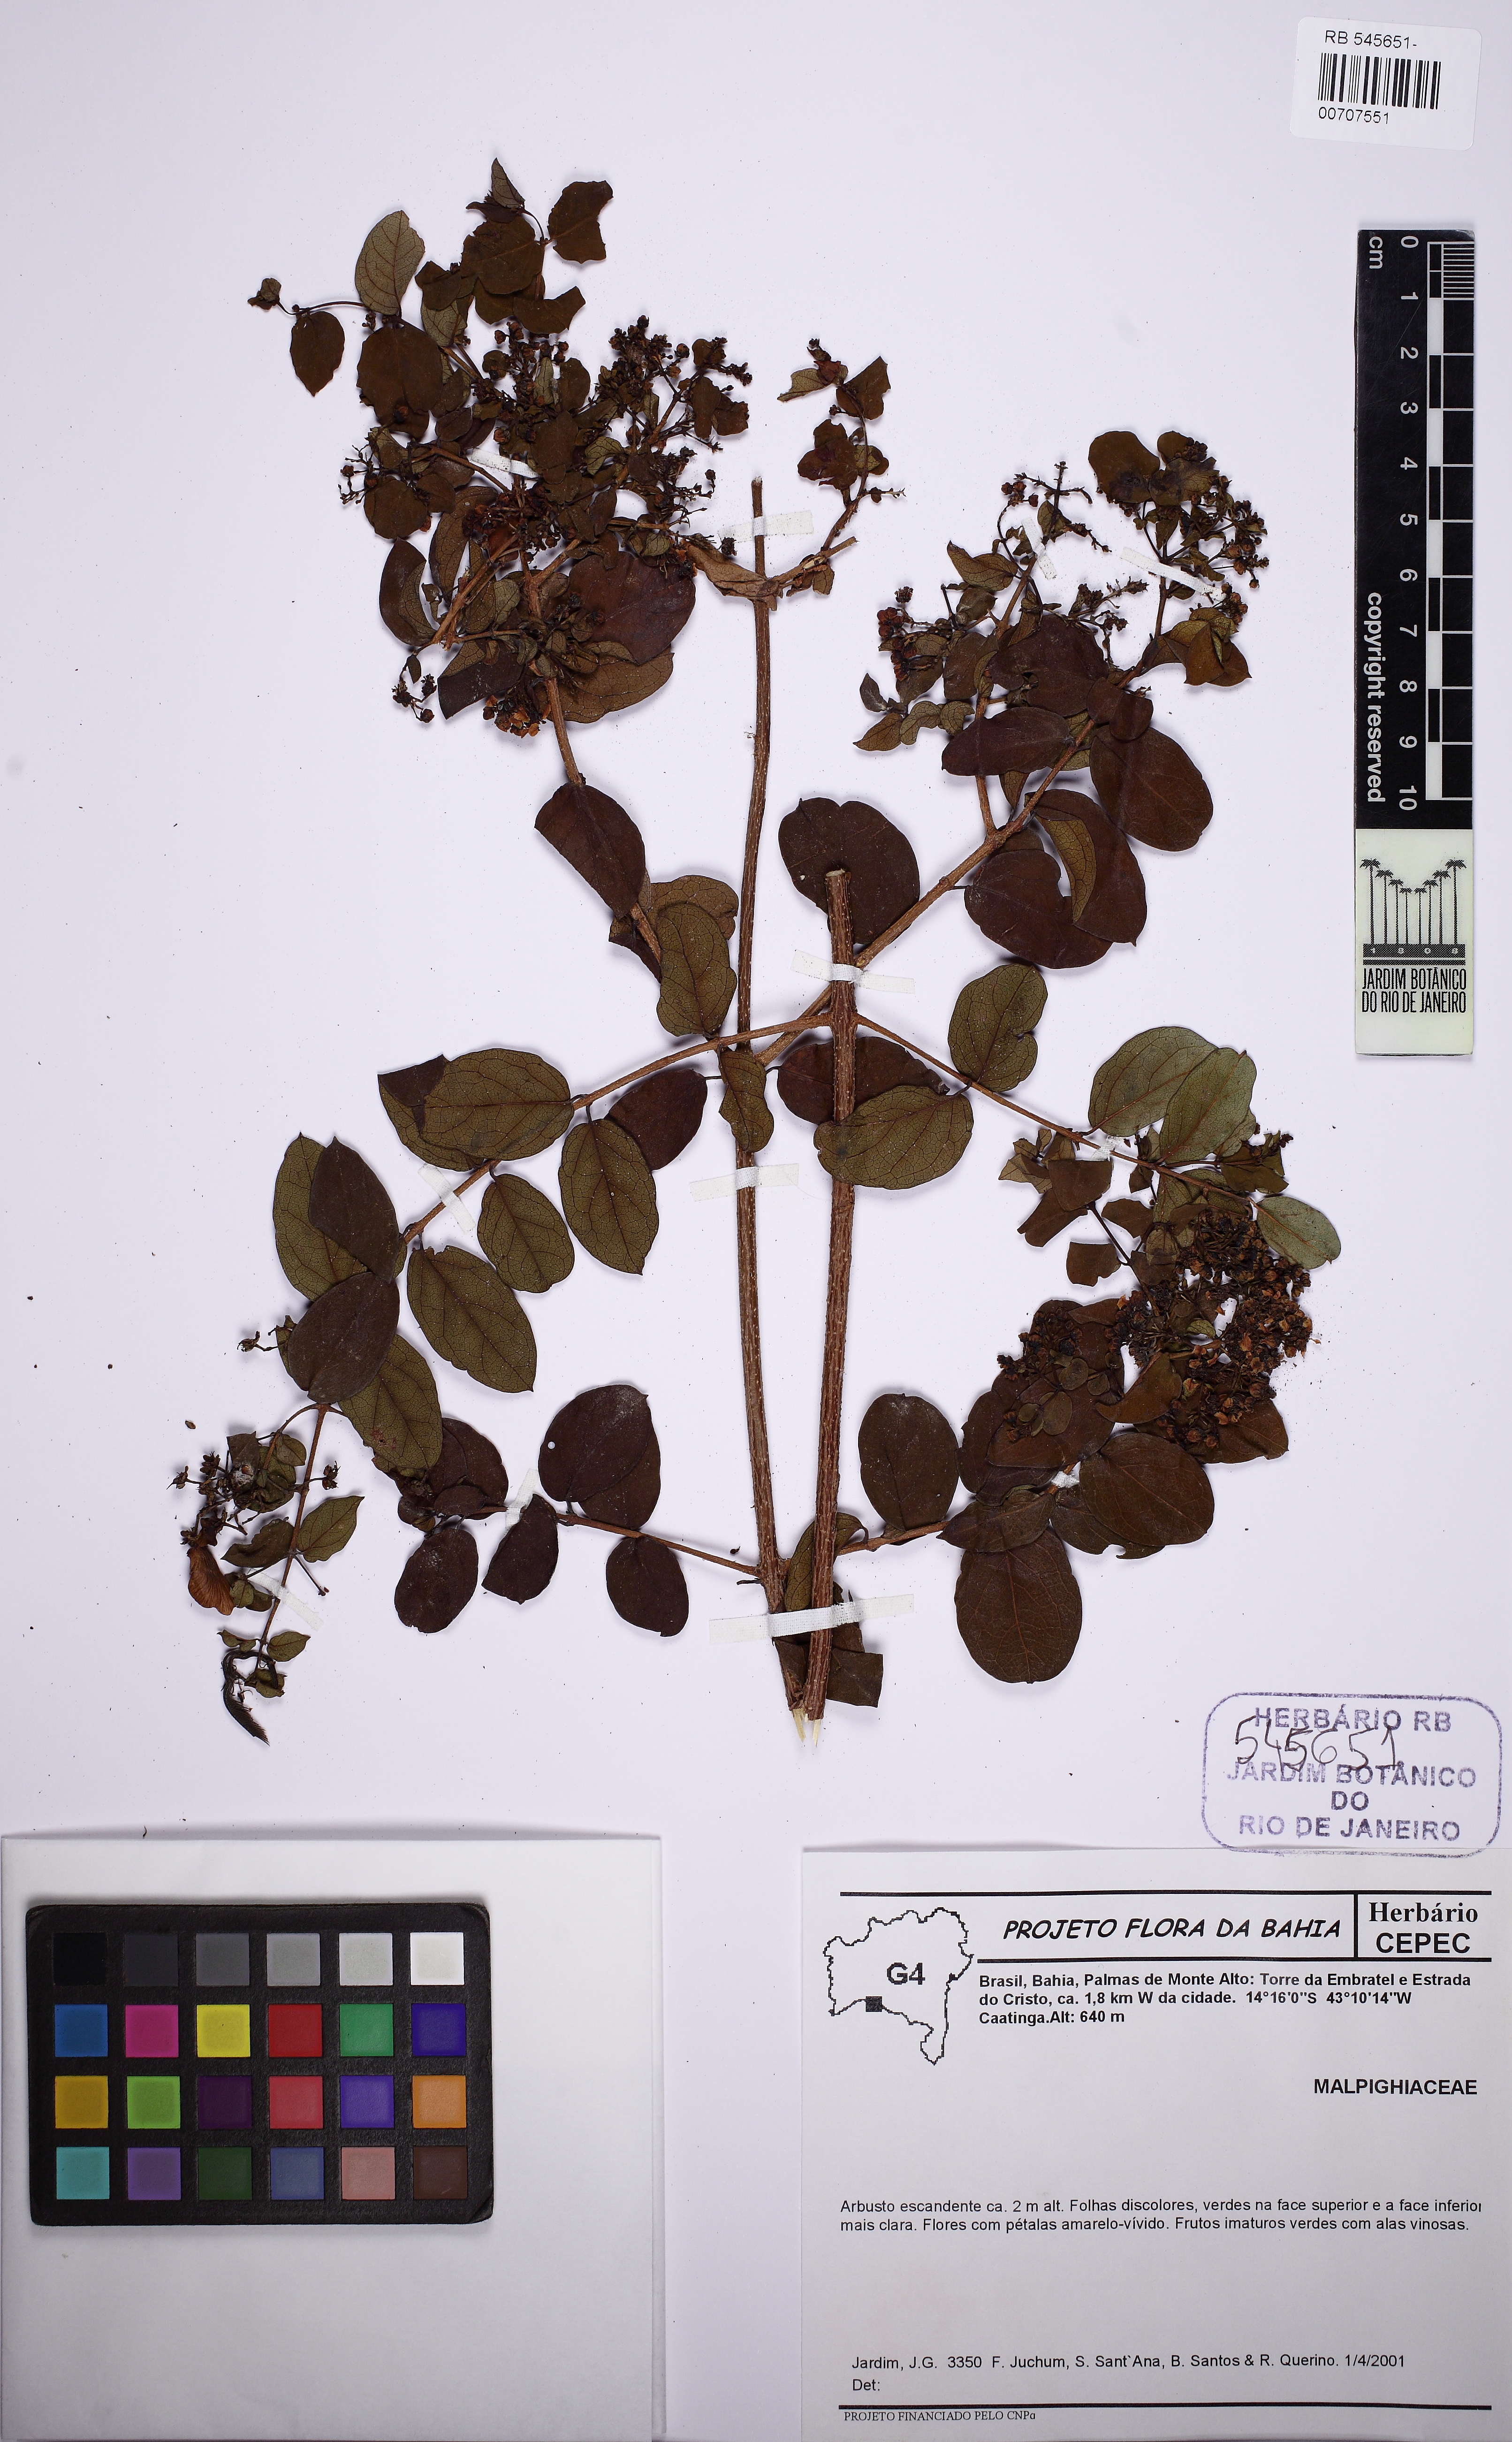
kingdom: Plantae
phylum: Tracheophyta
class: Magnoliopsida
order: Malpighiales
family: Malpighiaceae
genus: Heteropterys
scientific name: Heteropterys
